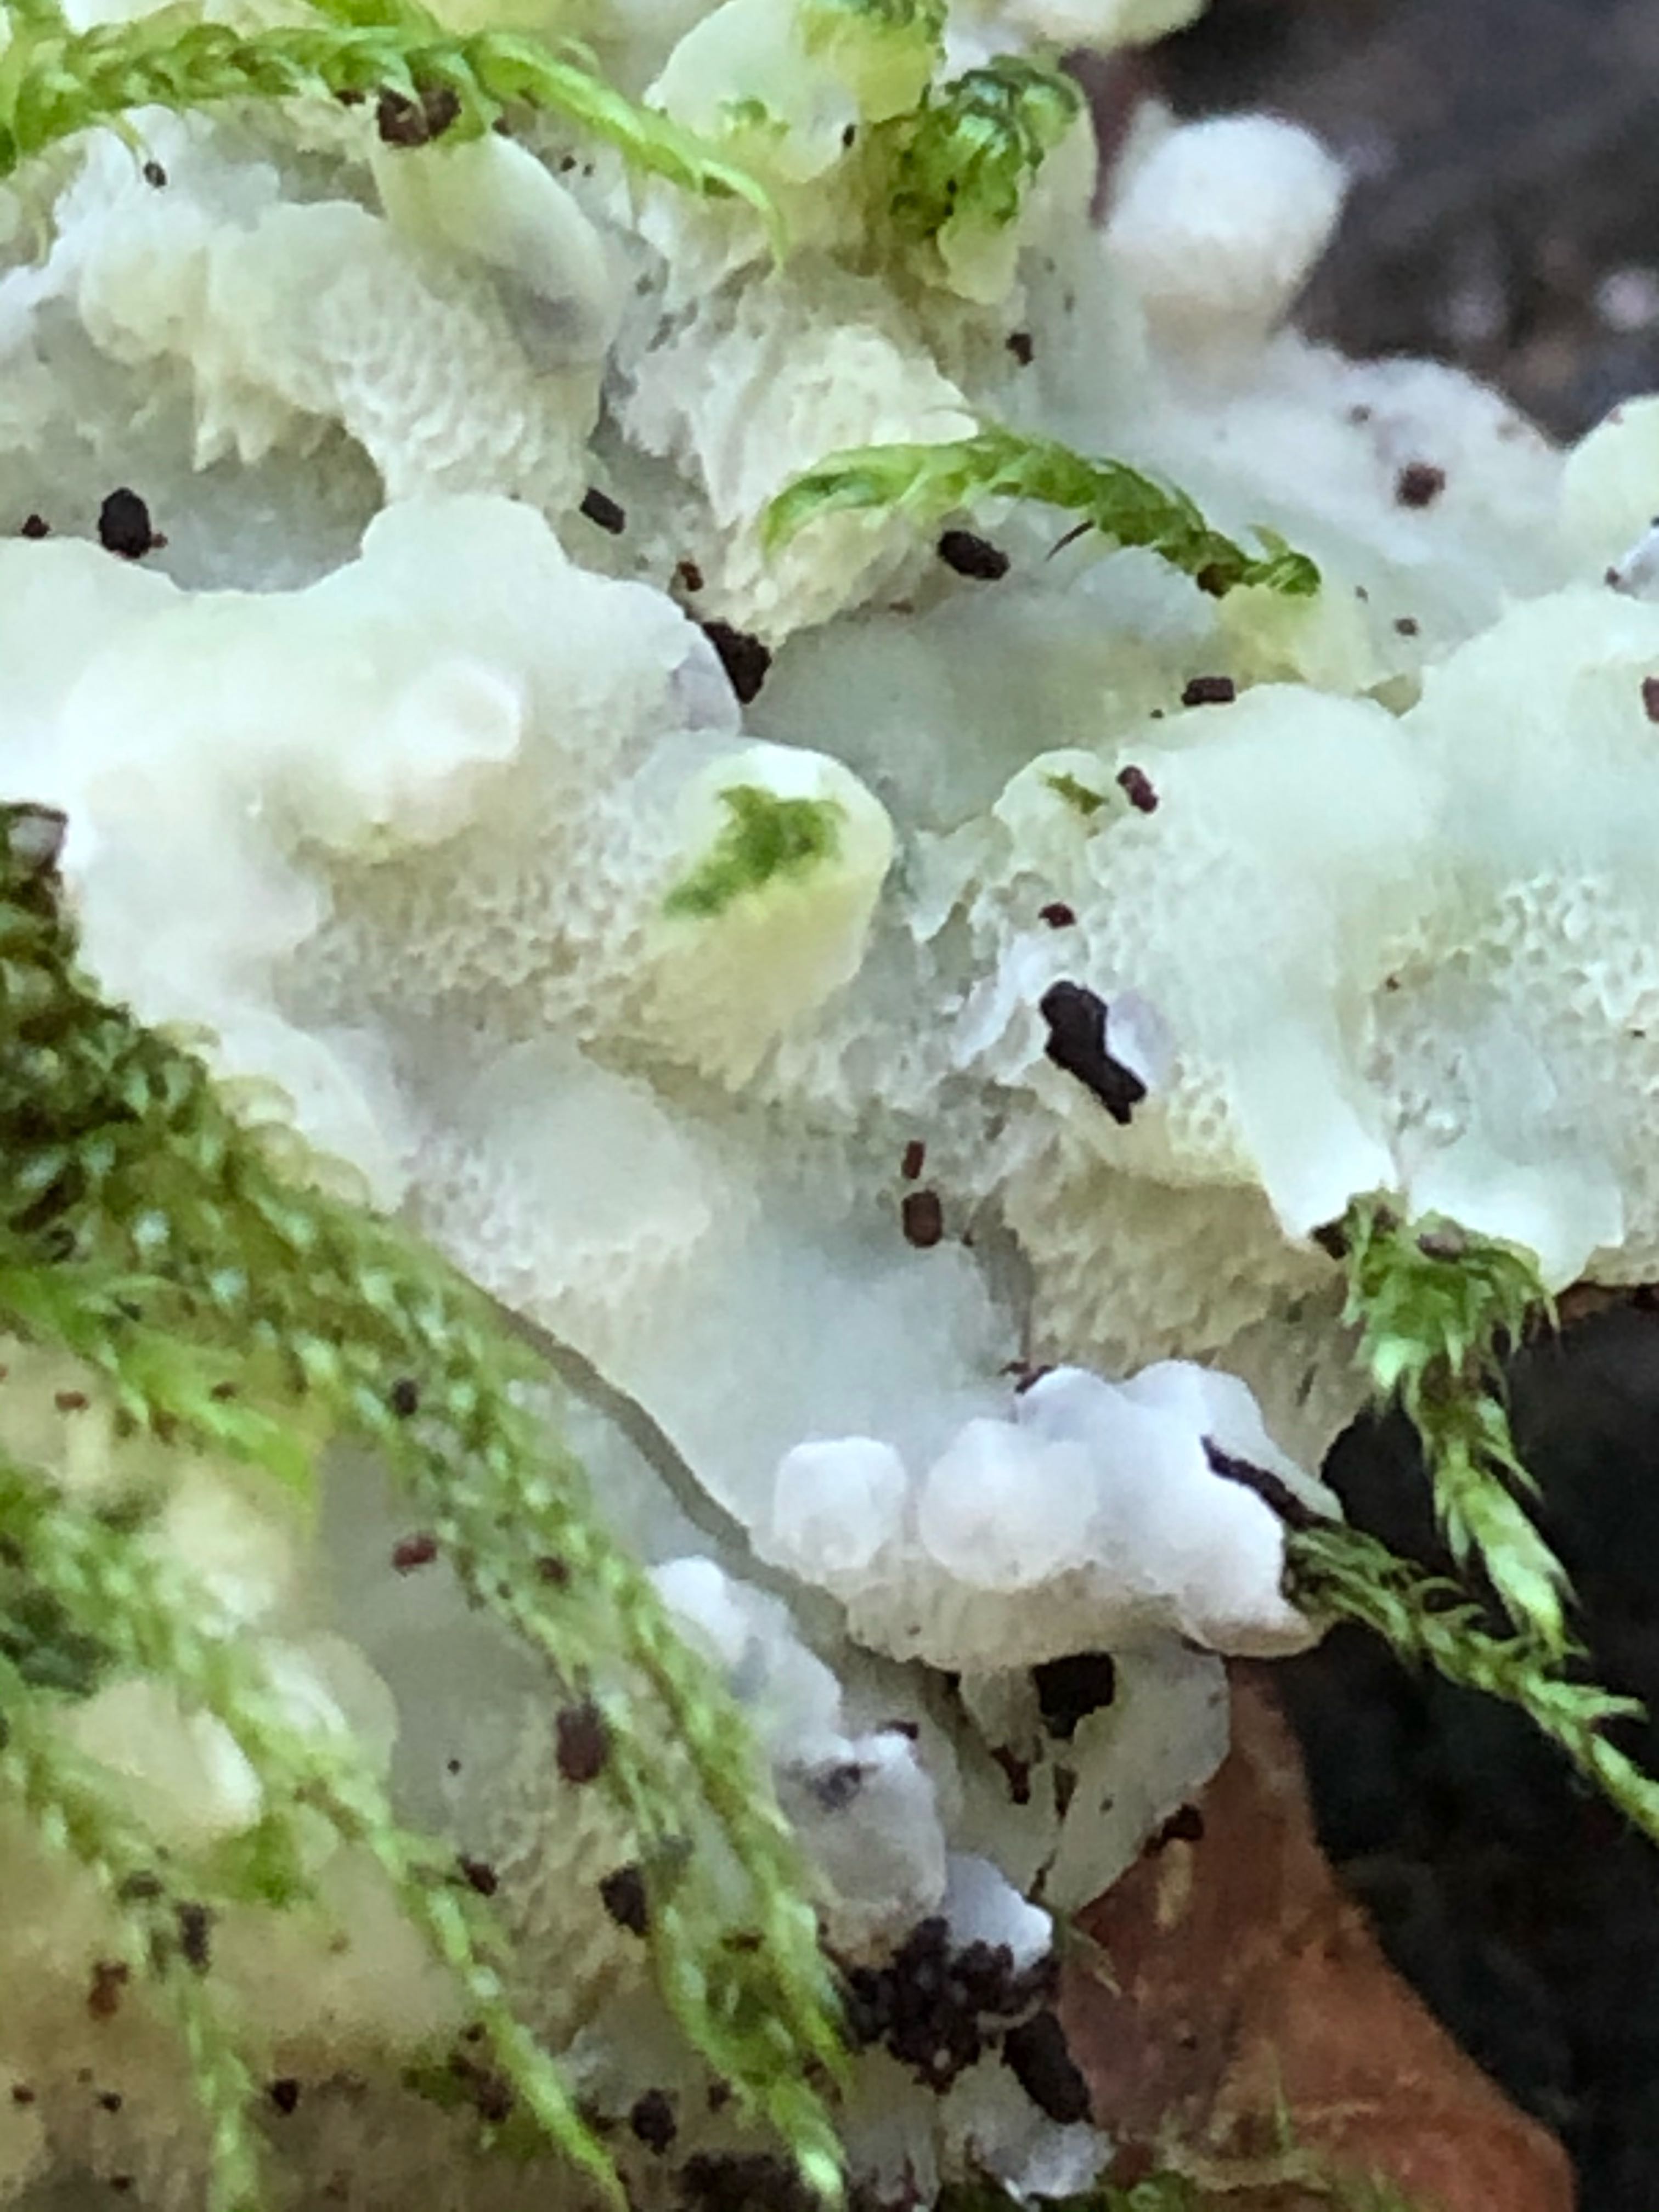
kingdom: Fungi
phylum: Basidiomycota
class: Agaricomycetes
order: Polyporales
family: Meruliaceae
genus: Physisporinus
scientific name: Physisporinus vitreus
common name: mastesvamp
